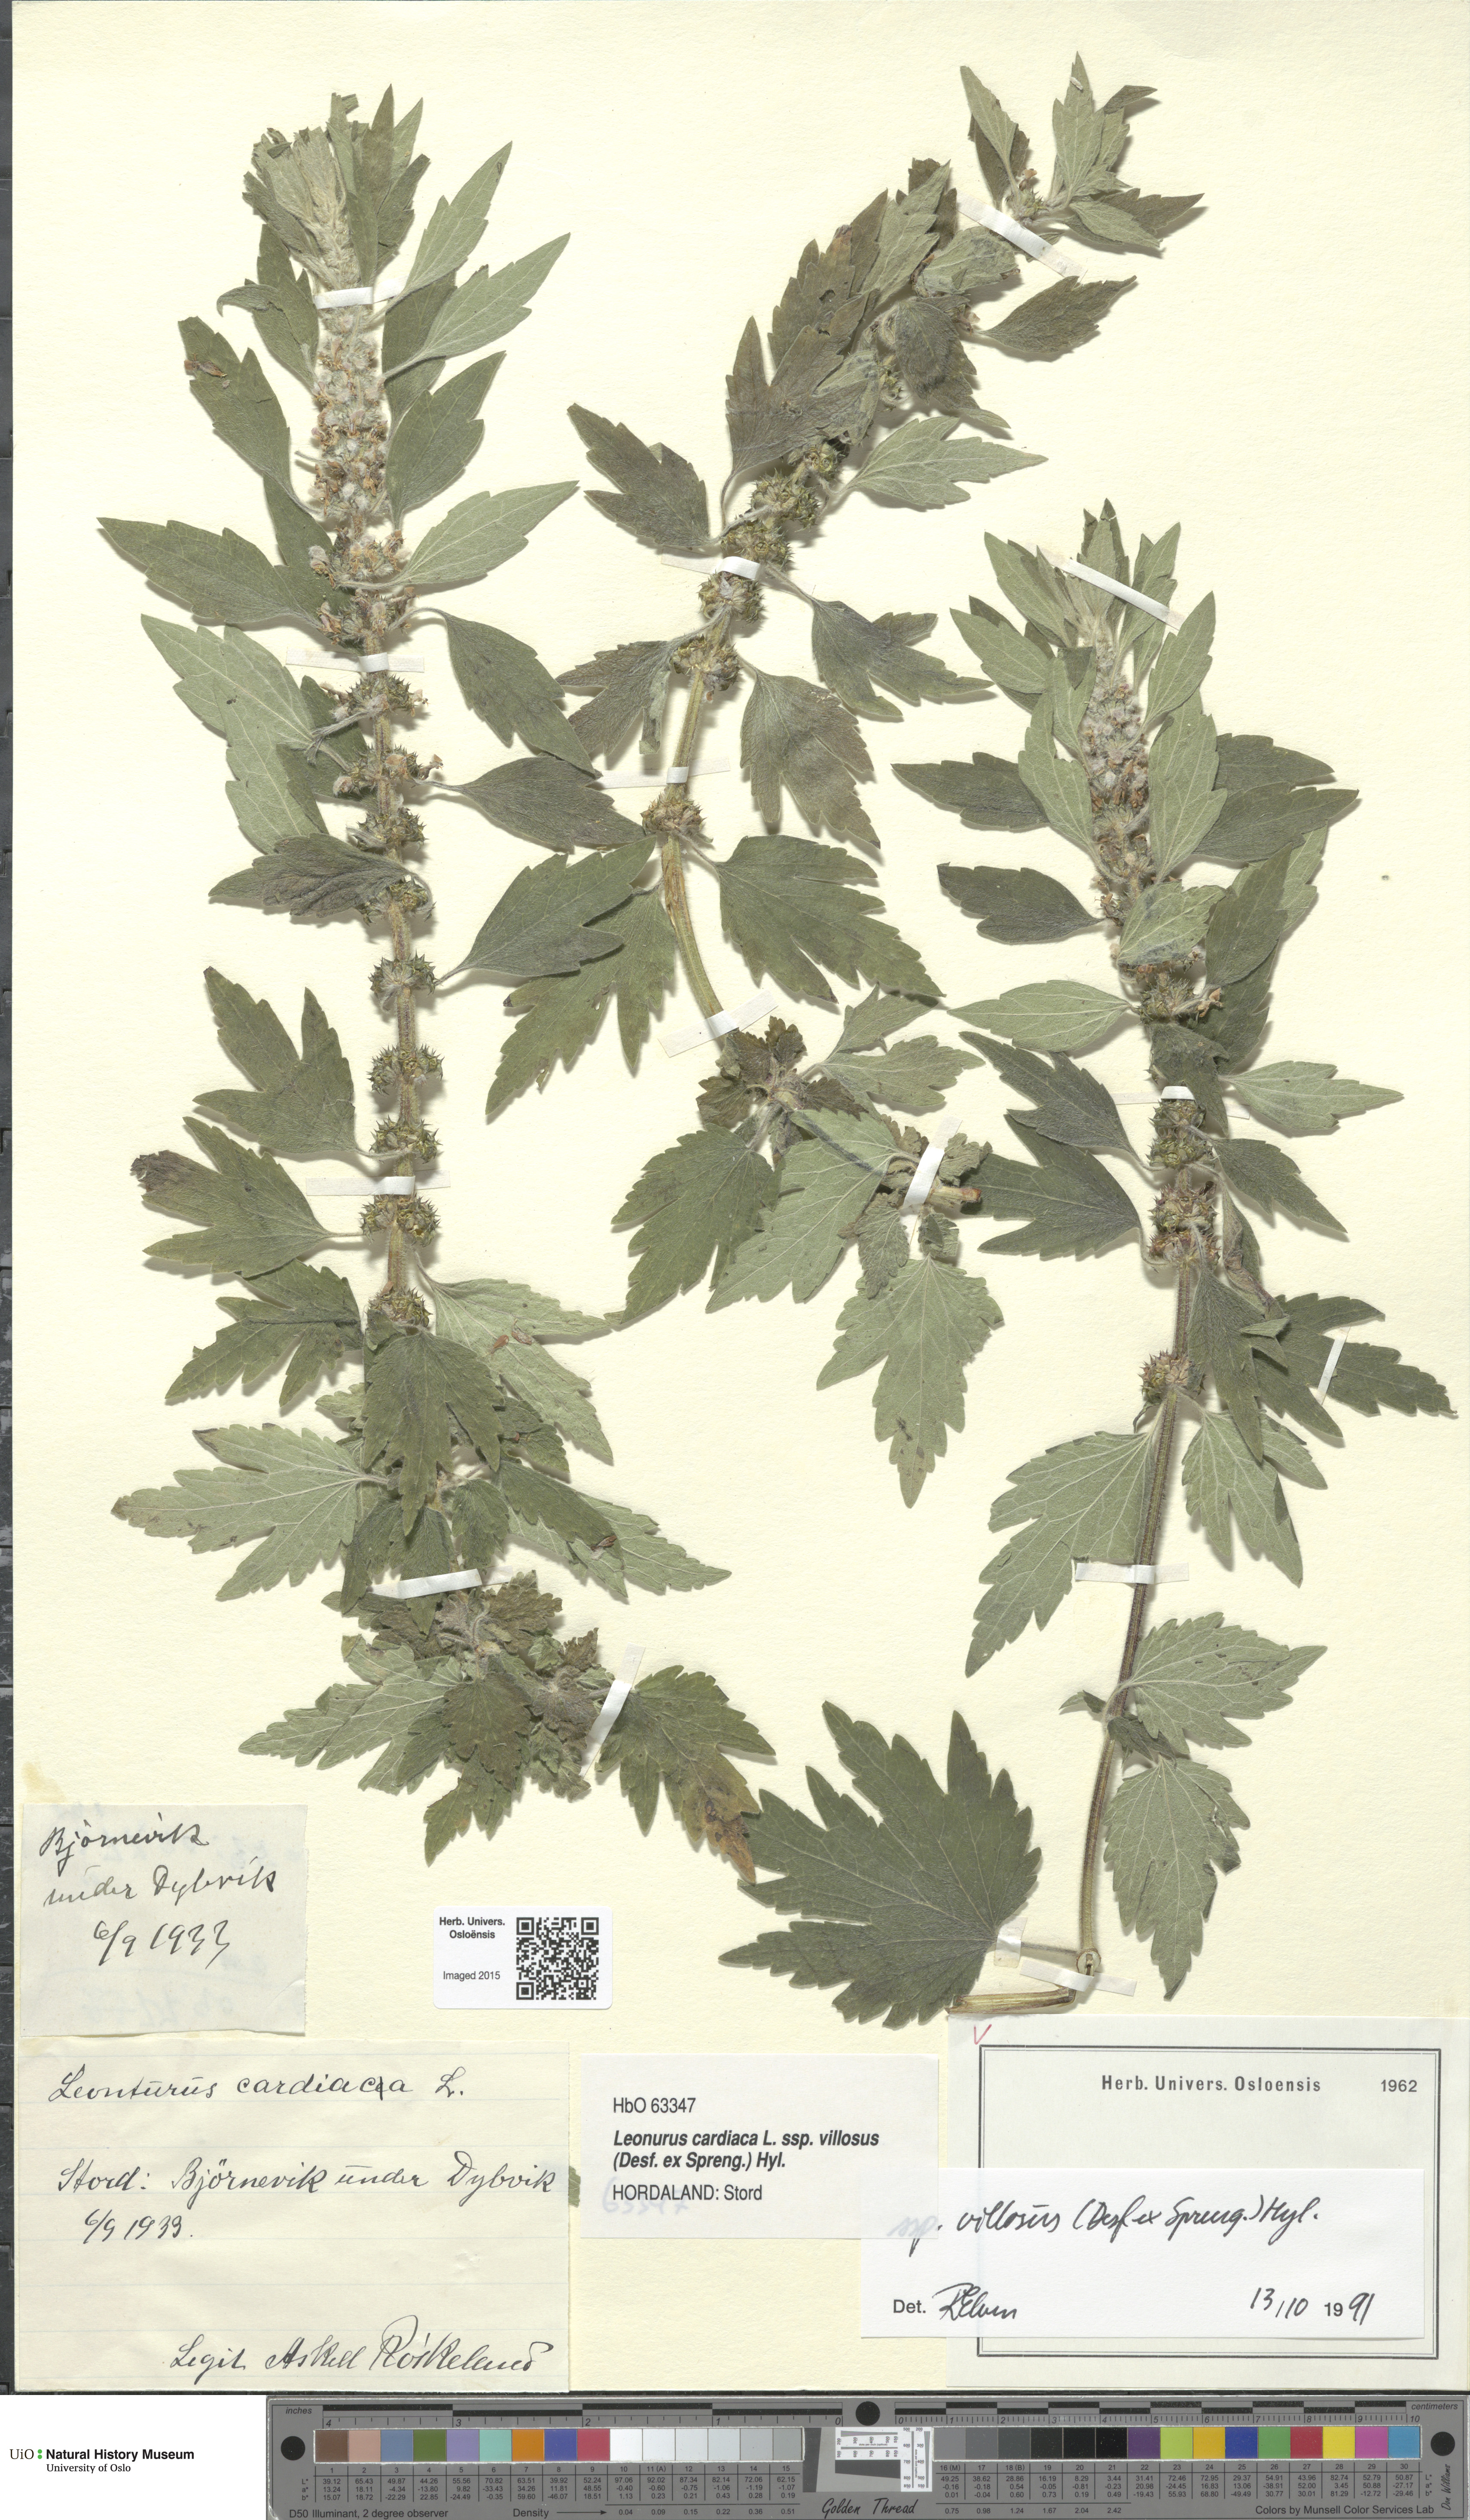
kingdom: Plantae
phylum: Tracheophyta
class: Magnoliopsida
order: Lamiales
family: Lamiaceae
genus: Leonurus
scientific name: Leonurus quinquelobatus
